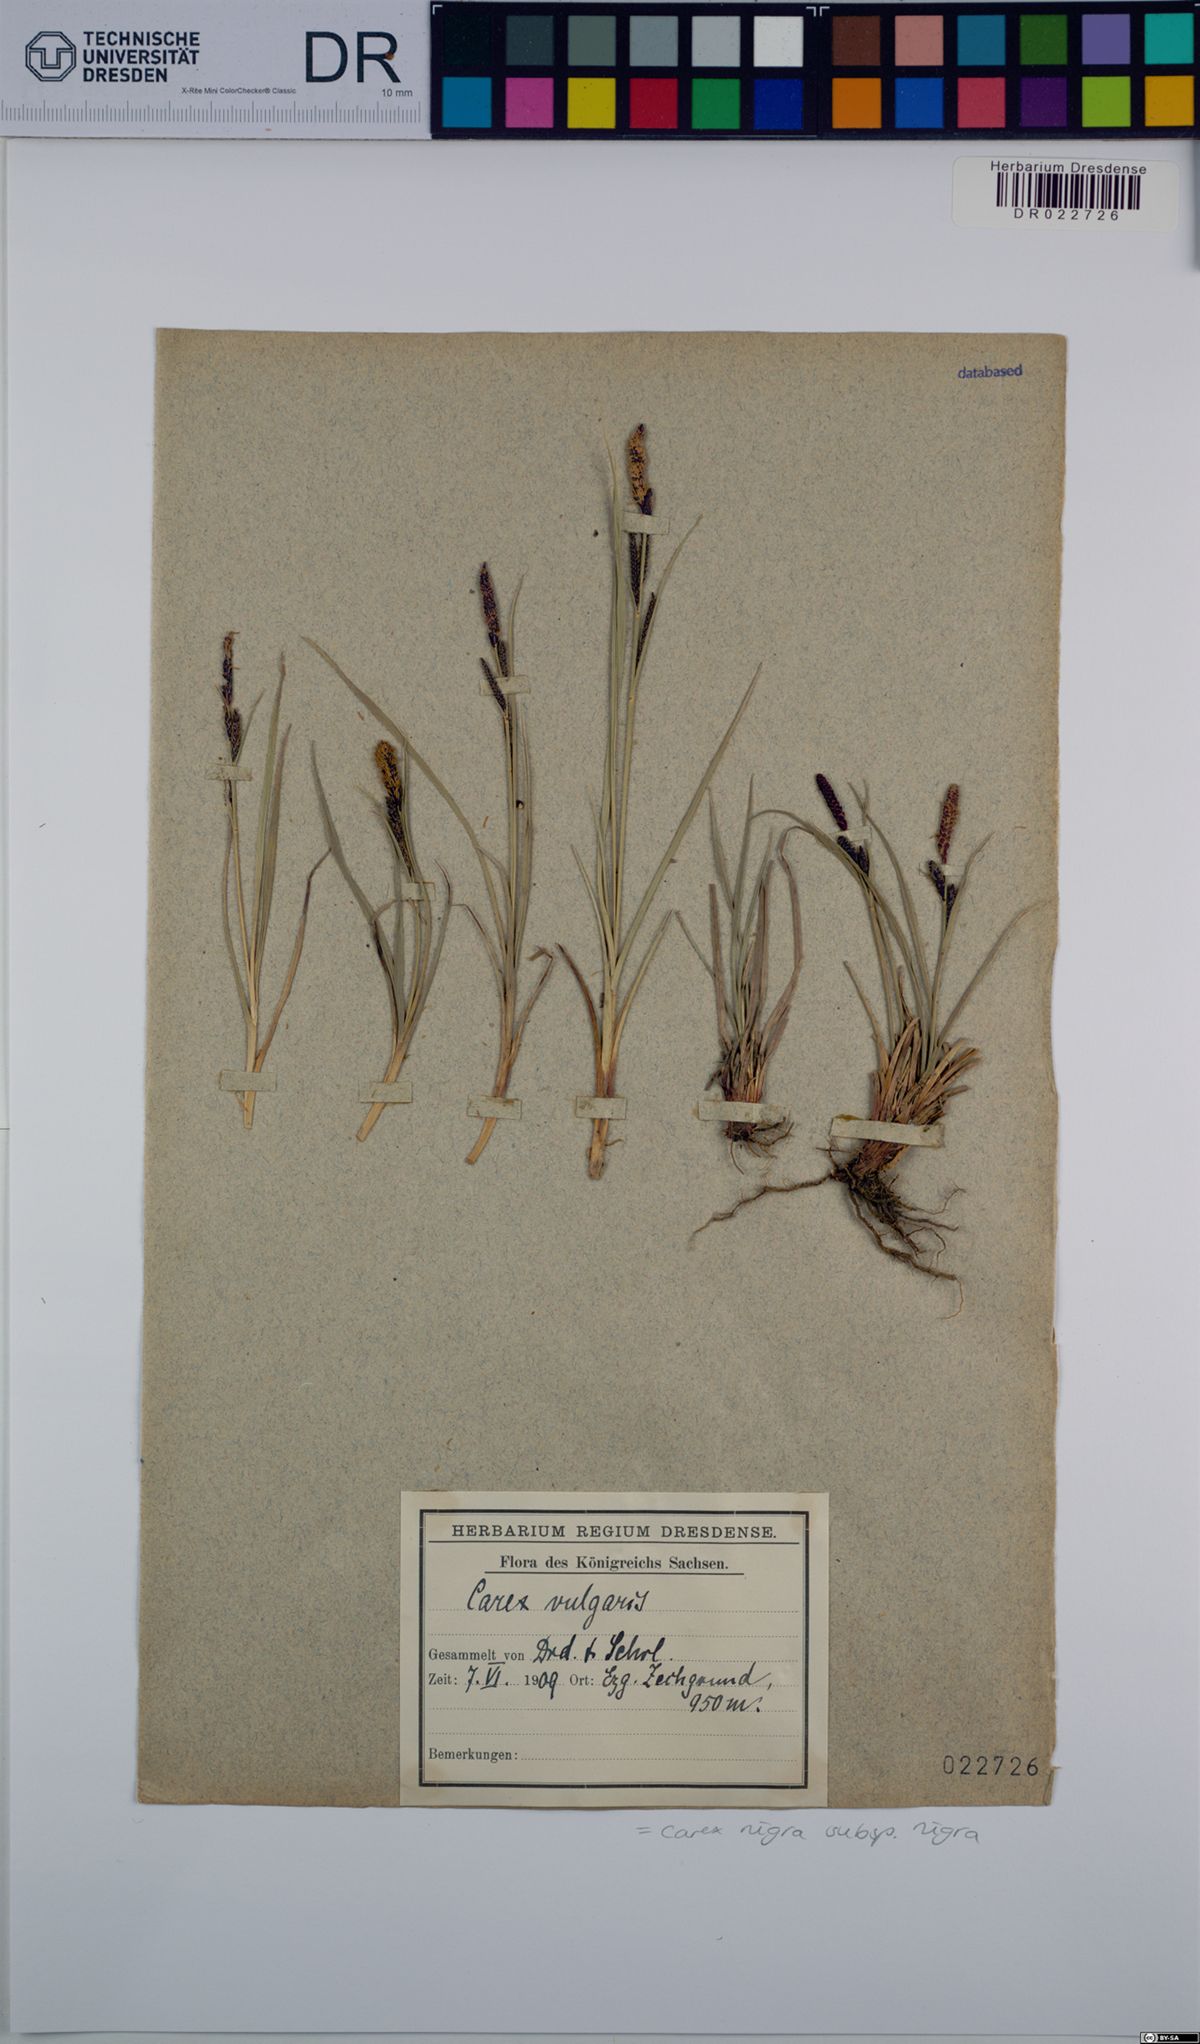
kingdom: Plantae
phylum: Tracheophyta
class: Liliopsida
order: Poales
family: Cyperaceae
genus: Carex
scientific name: Carex nigra
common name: Common sedge
